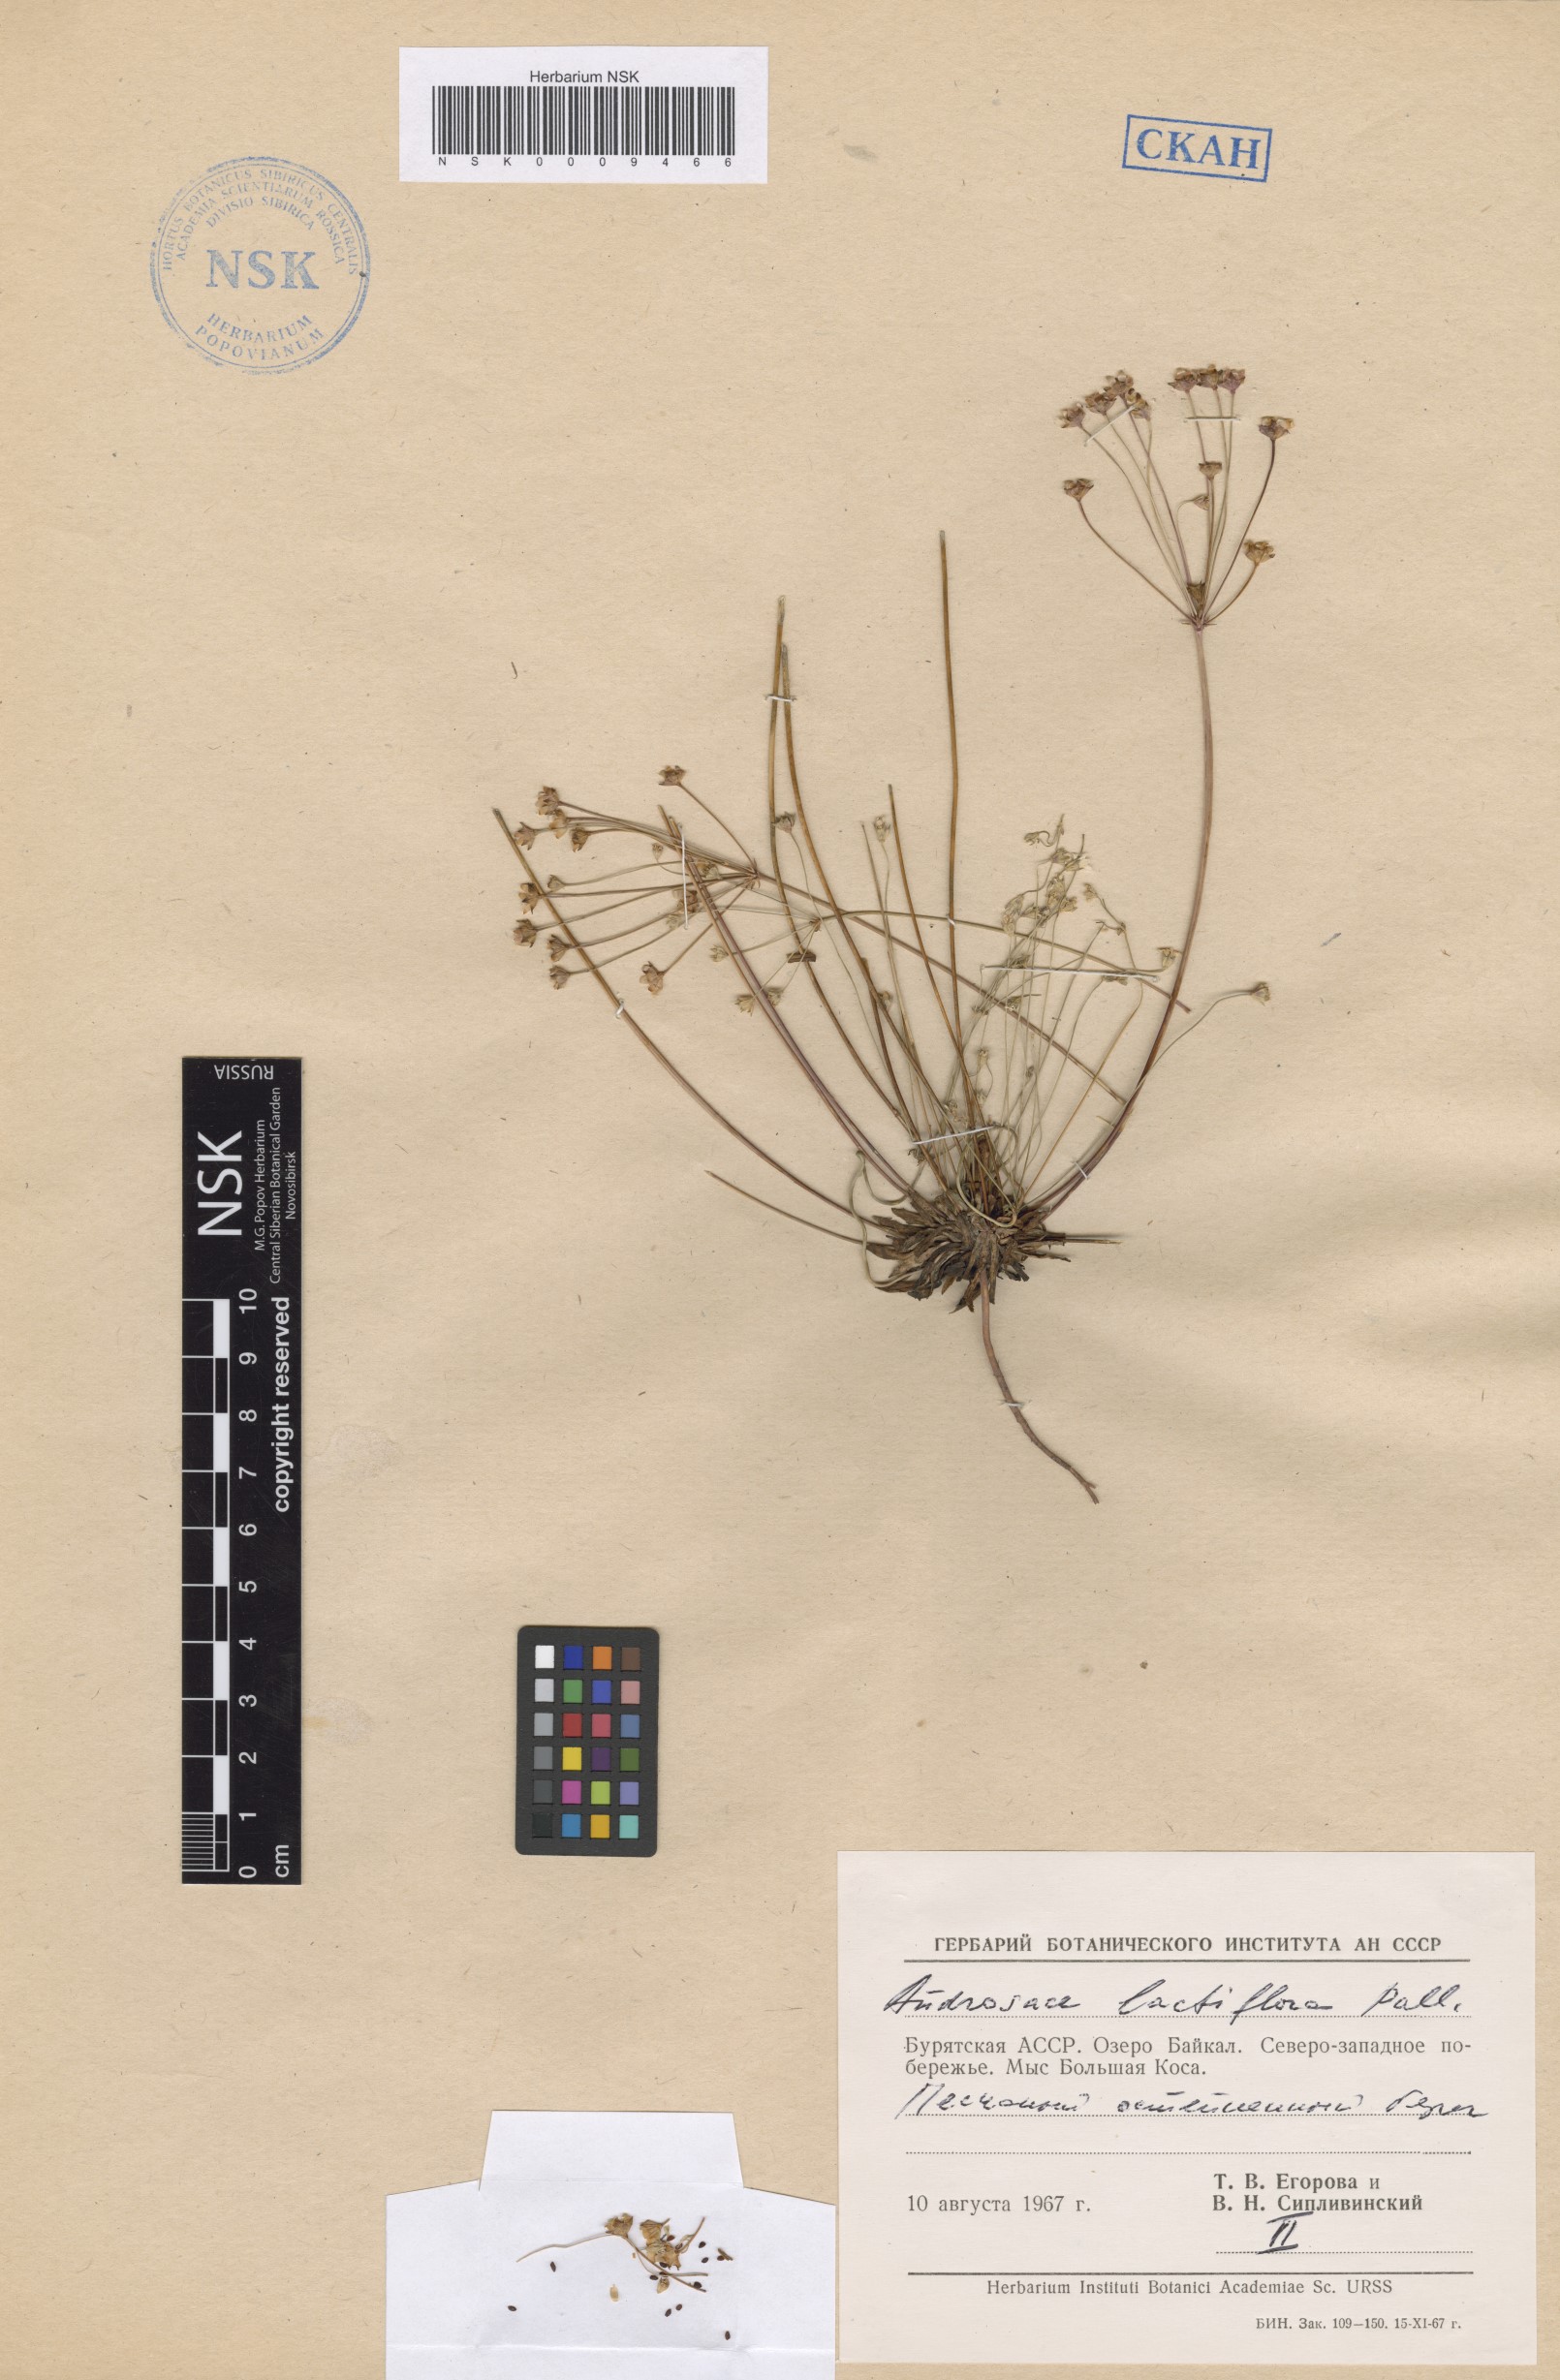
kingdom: Plantae
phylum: Tracheophyta
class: Magnoliopsida
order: Ericales
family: Primulaceae
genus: Androsace
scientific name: Androsace lactiflora
